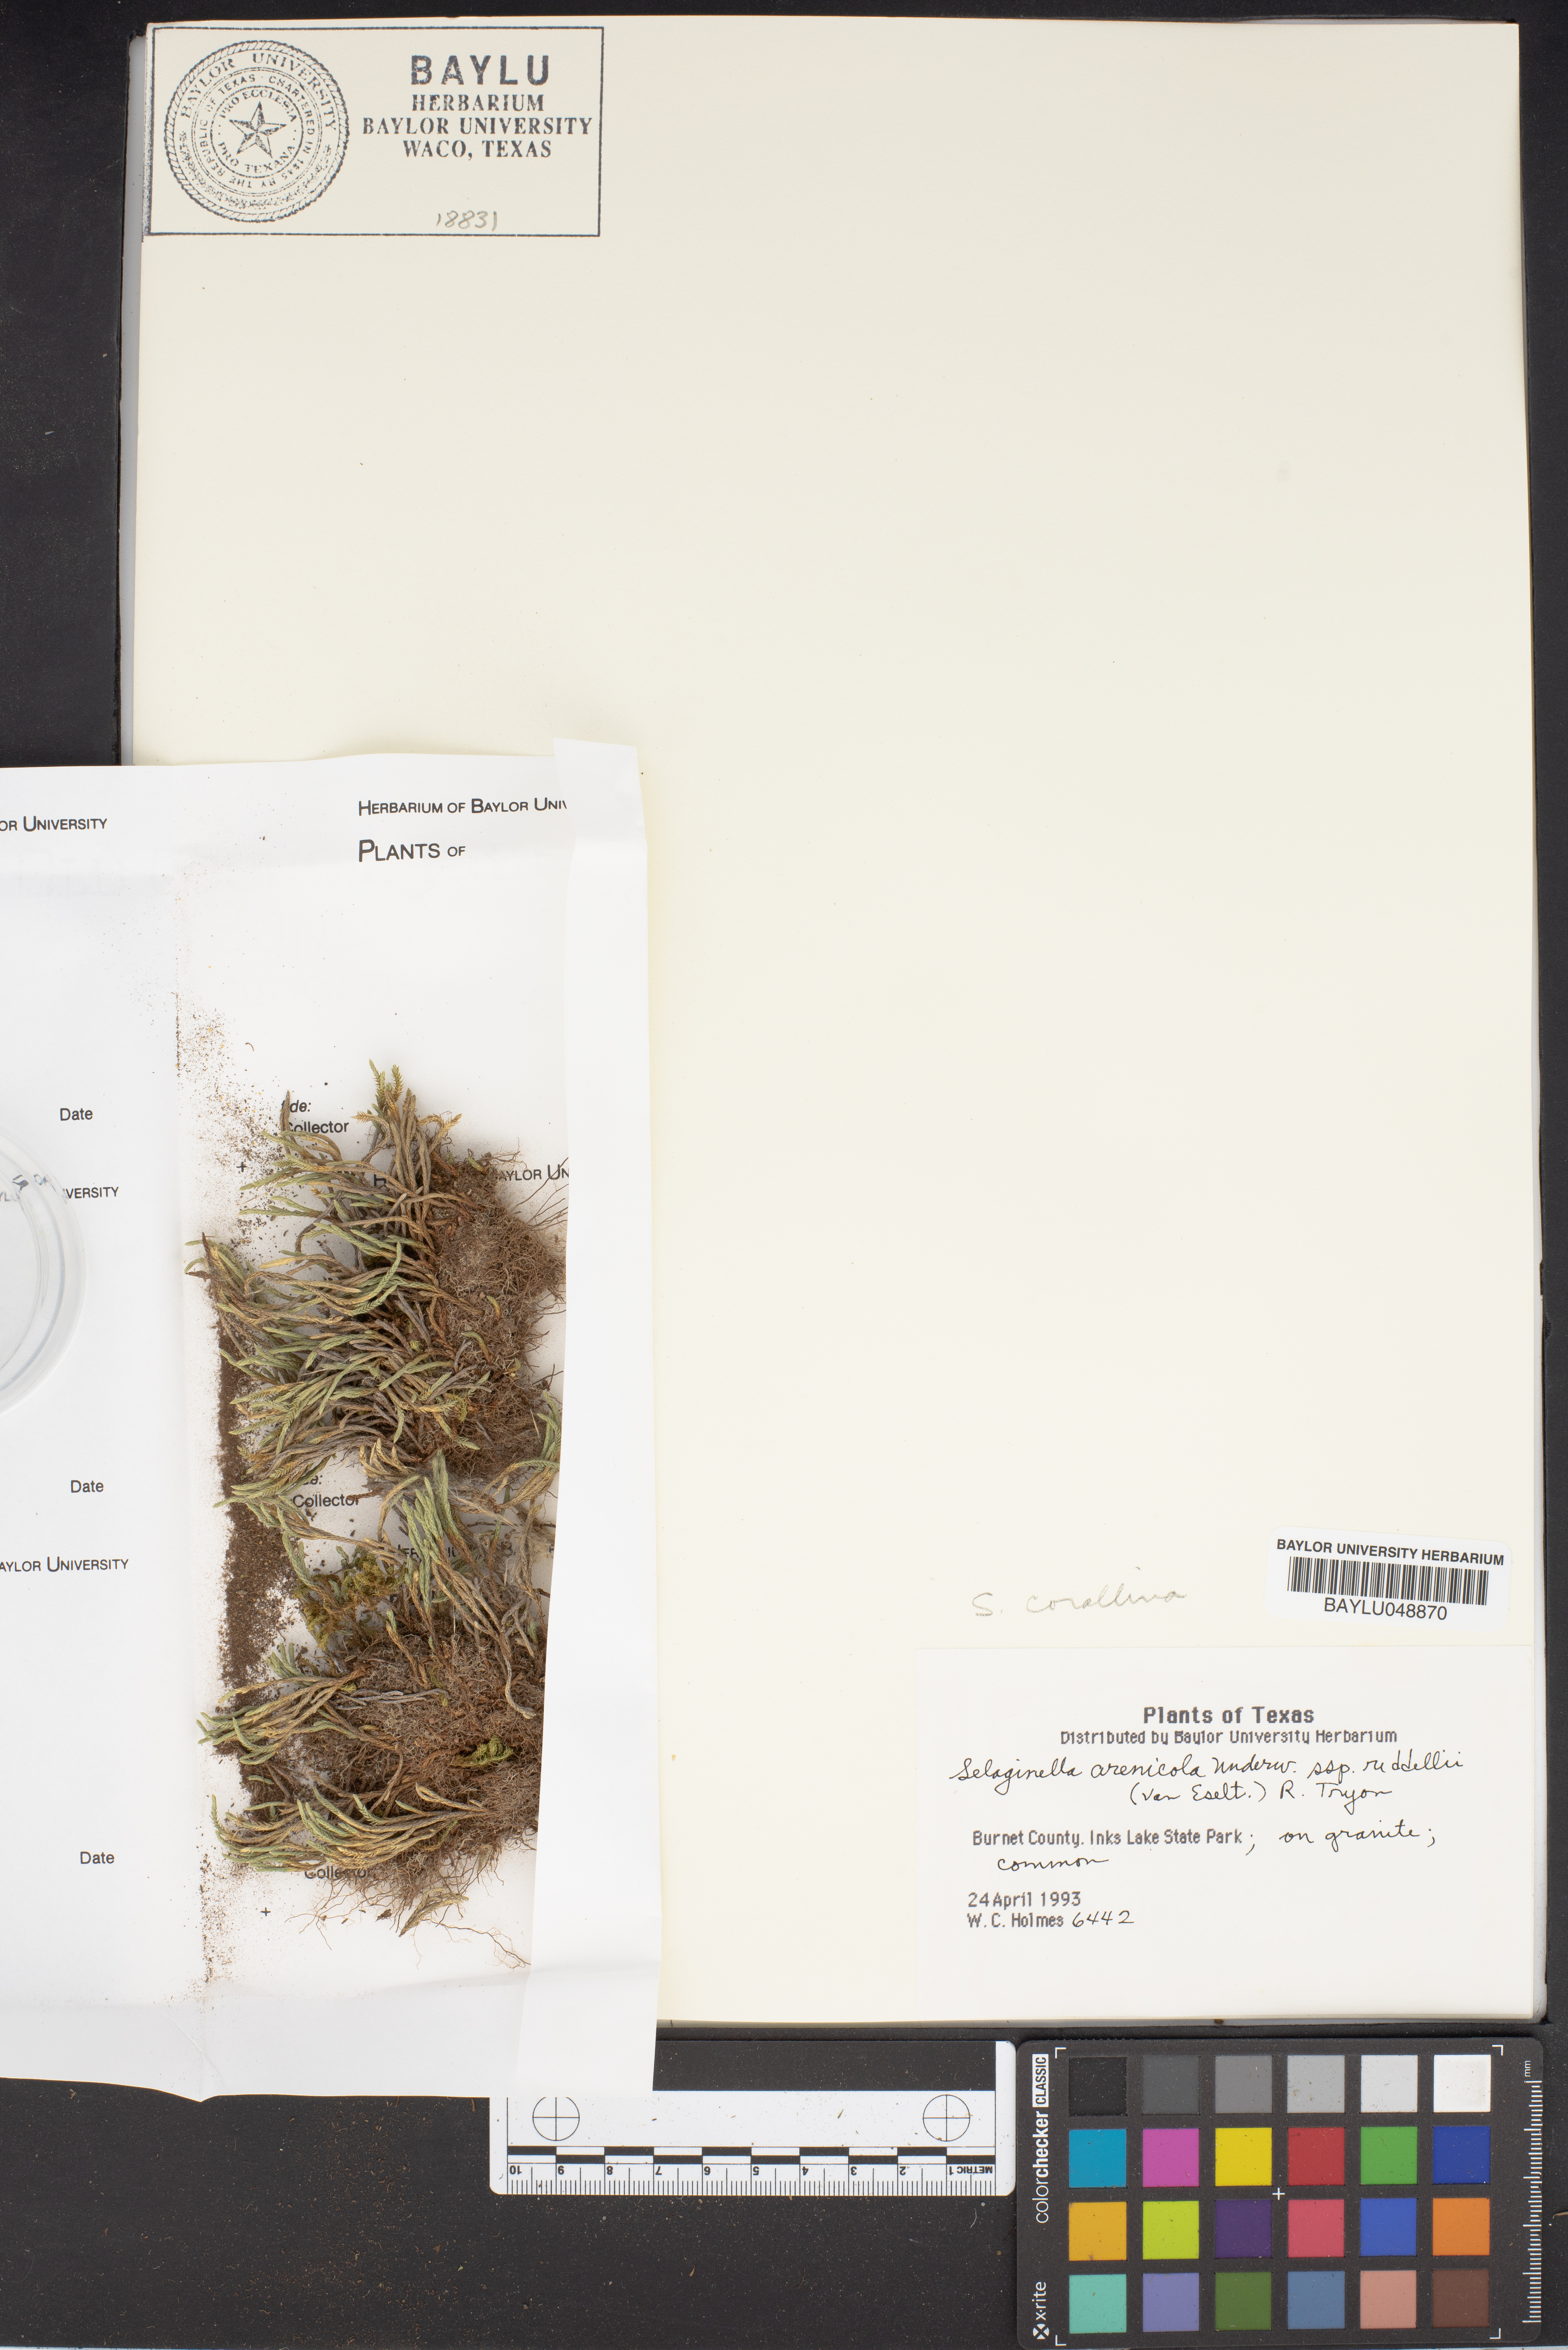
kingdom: Plantae
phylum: Tracheophyta
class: Lycopodiopsida
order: Selaginellales
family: Selaginellaceae
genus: Selaginella
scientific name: Selaginella arenicola
